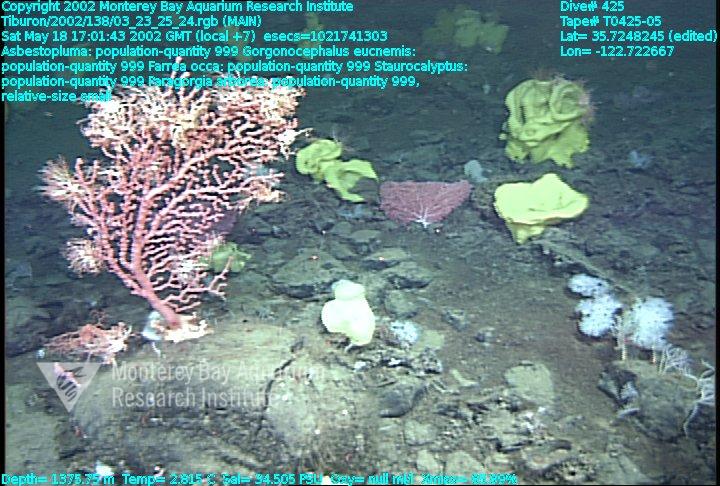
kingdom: Animalia
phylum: Porifera
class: Demospongiae
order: Poecilosclerida
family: Cladorhizidae
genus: Asbestopluma
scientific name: Asbestopluma
